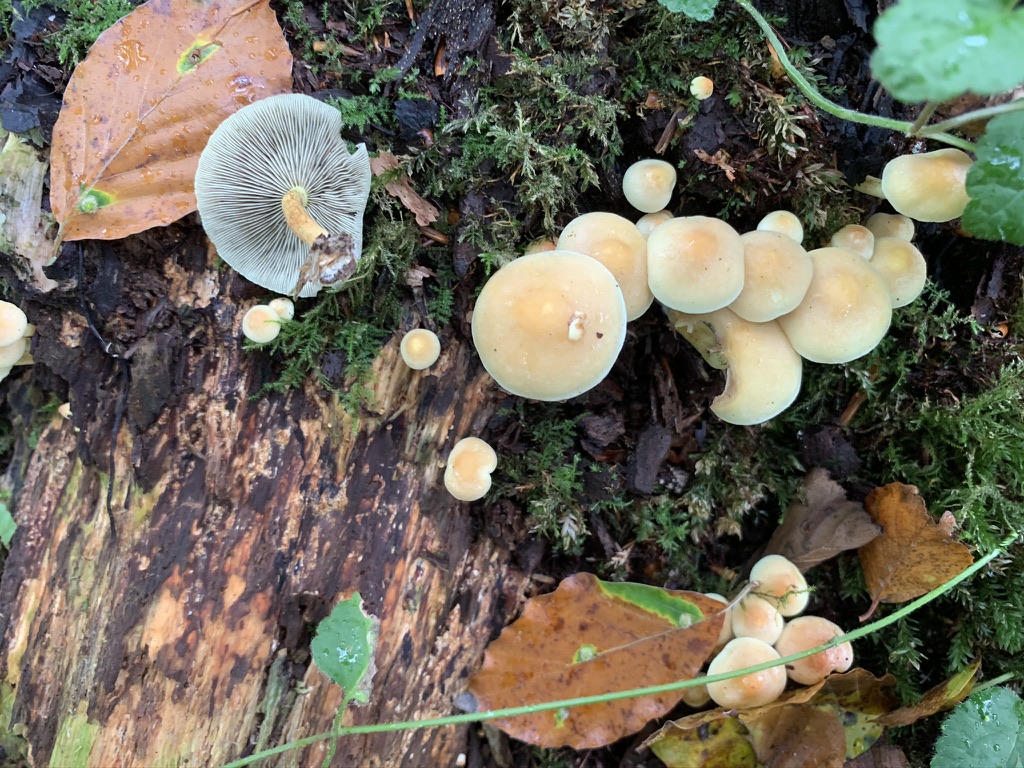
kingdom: Fungi
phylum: Basidiomycota
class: Agaricomycetes
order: Agaricales
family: Strophariaceae
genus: Hypholoma
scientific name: Hypholoma fasciculare
